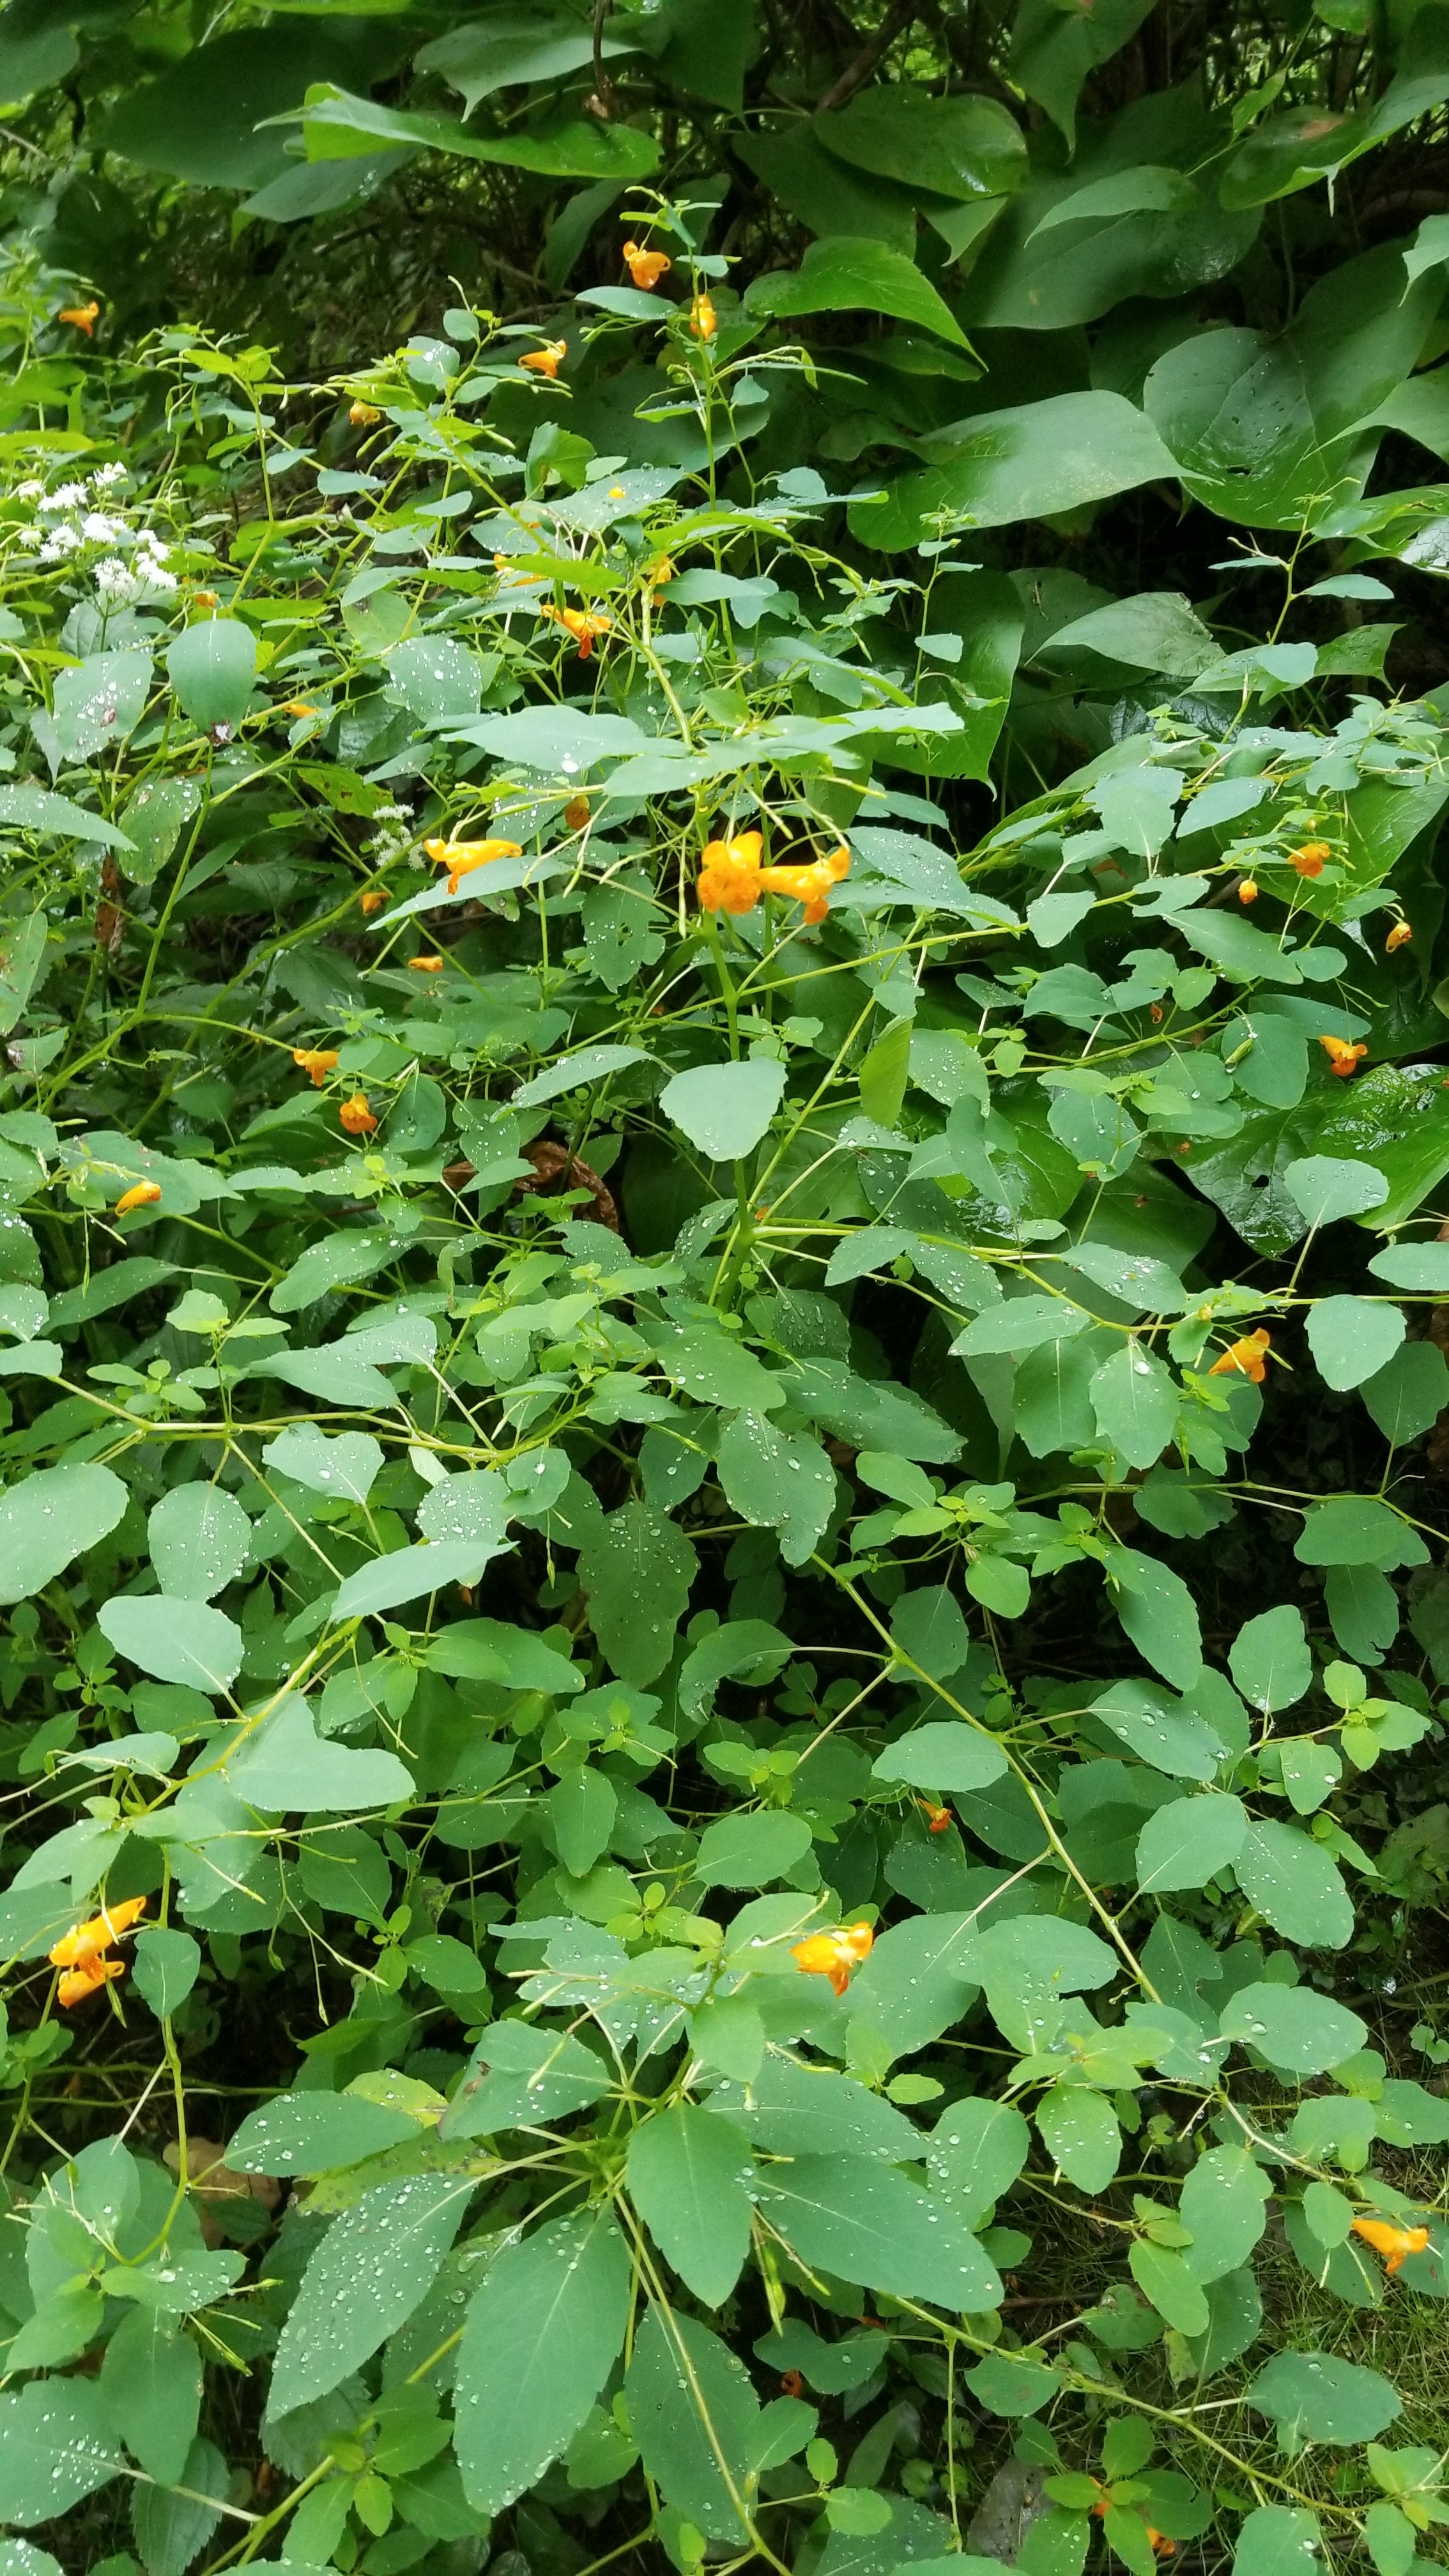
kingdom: Plantae
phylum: Tracheophyta
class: Magnoliopsida
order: Ericales
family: Balsaminaceae
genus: Impatiens
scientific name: Impatiens capensis
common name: Jewelweed
